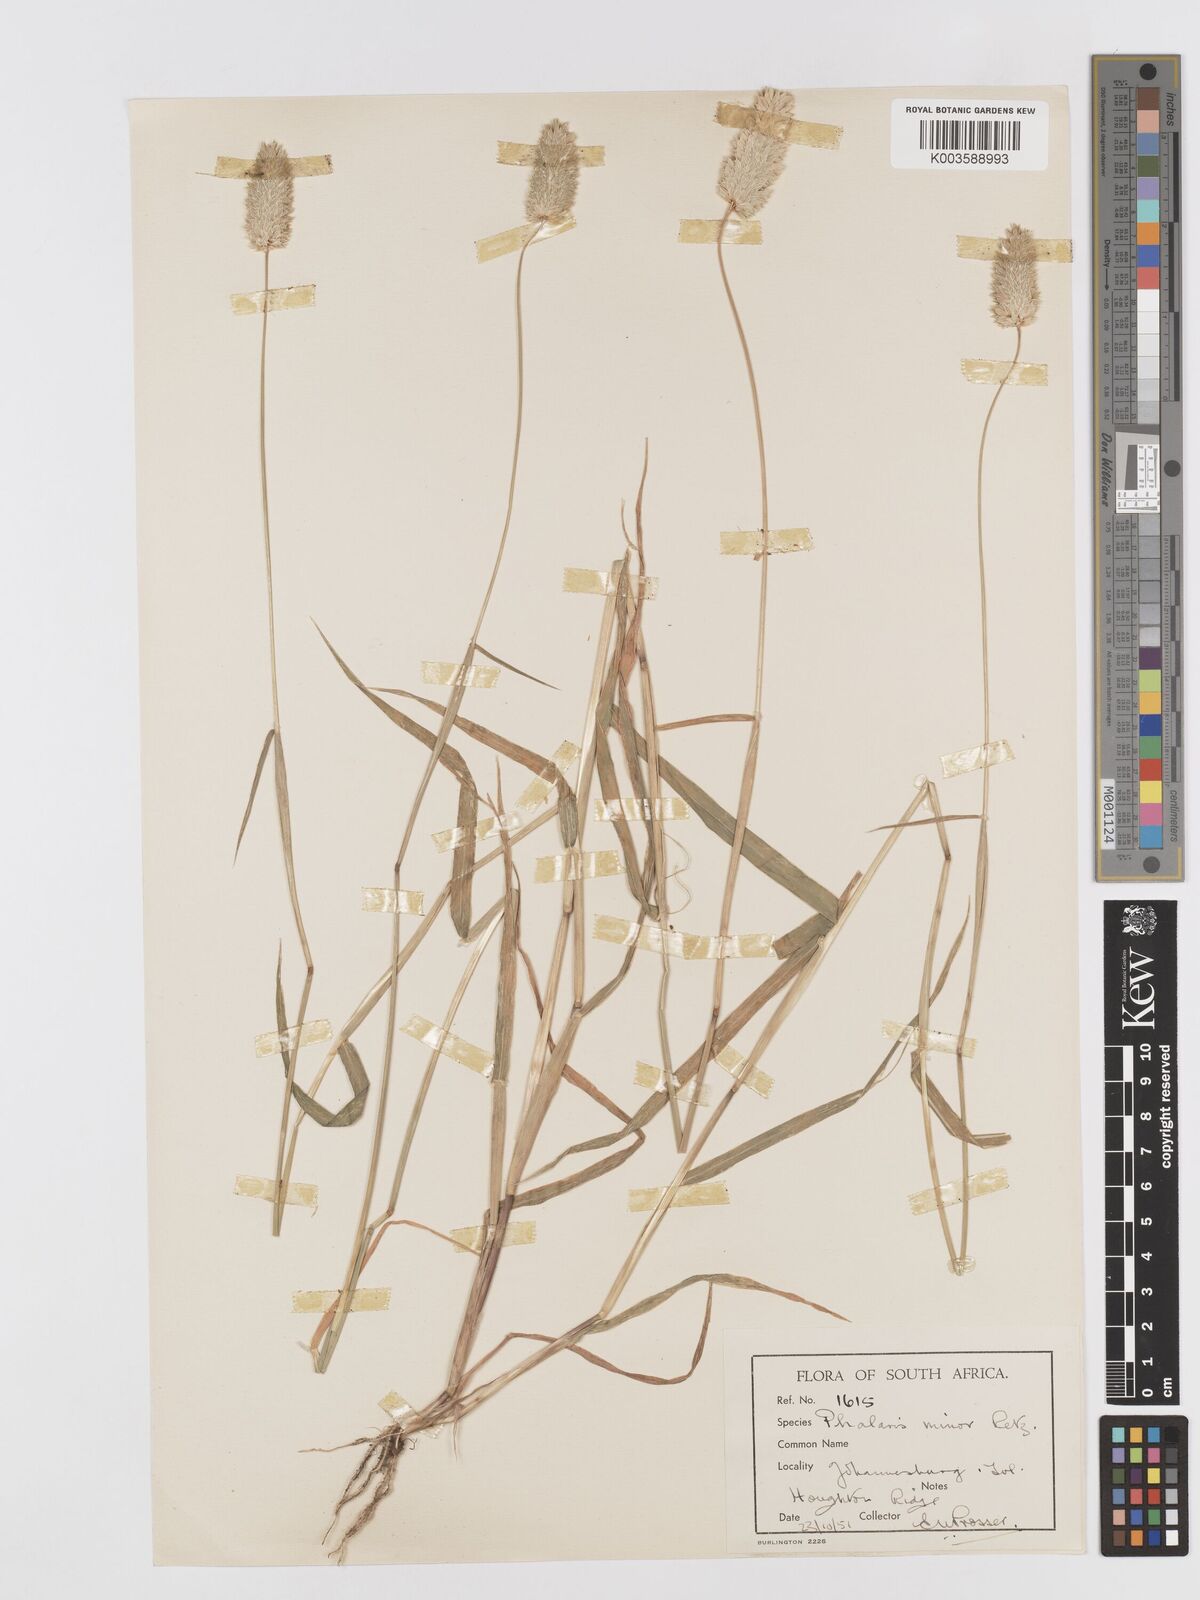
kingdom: Plantae
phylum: Tracheophyta
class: Liliopsida
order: Poales
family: Poaceae
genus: Phalaris
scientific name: Phalaris minor
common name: Littleseed canarygrass
